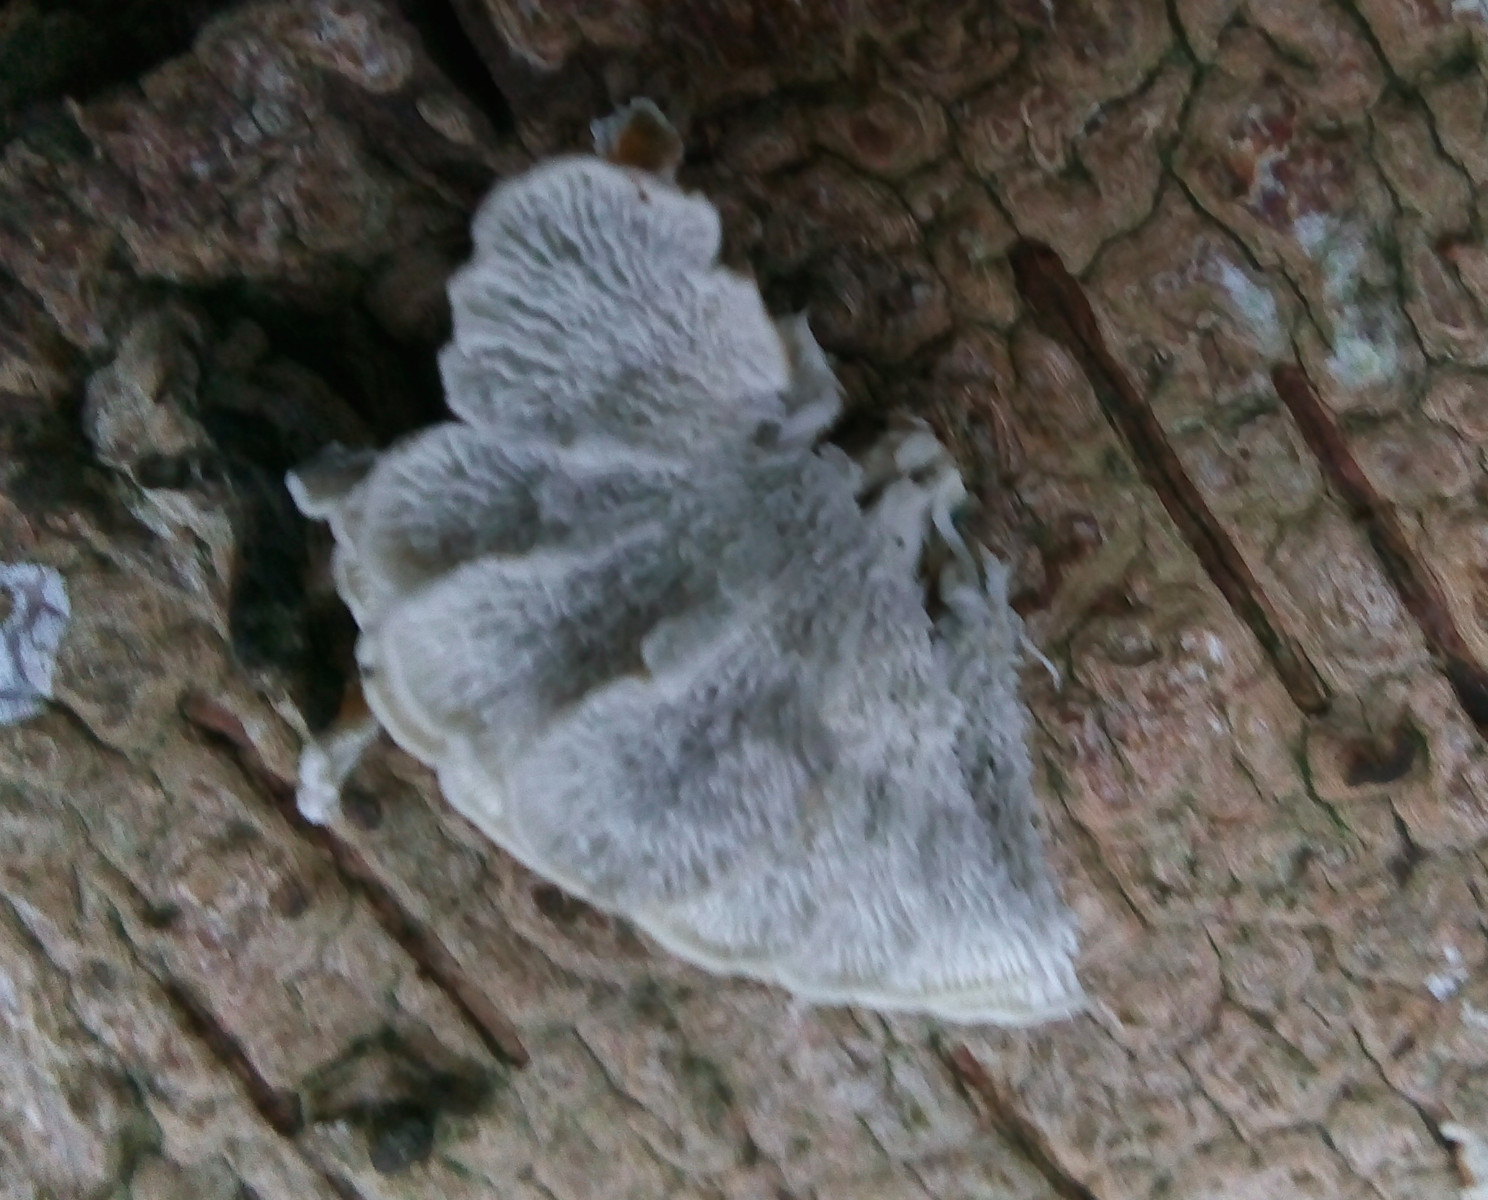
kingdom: Fungi
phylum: Basidiomycota
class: Agaricomycetes
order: Amylocorticiales
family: Amylocorticiaceae
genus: Plicaturopsis
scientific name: Plicaturopsis crispa
